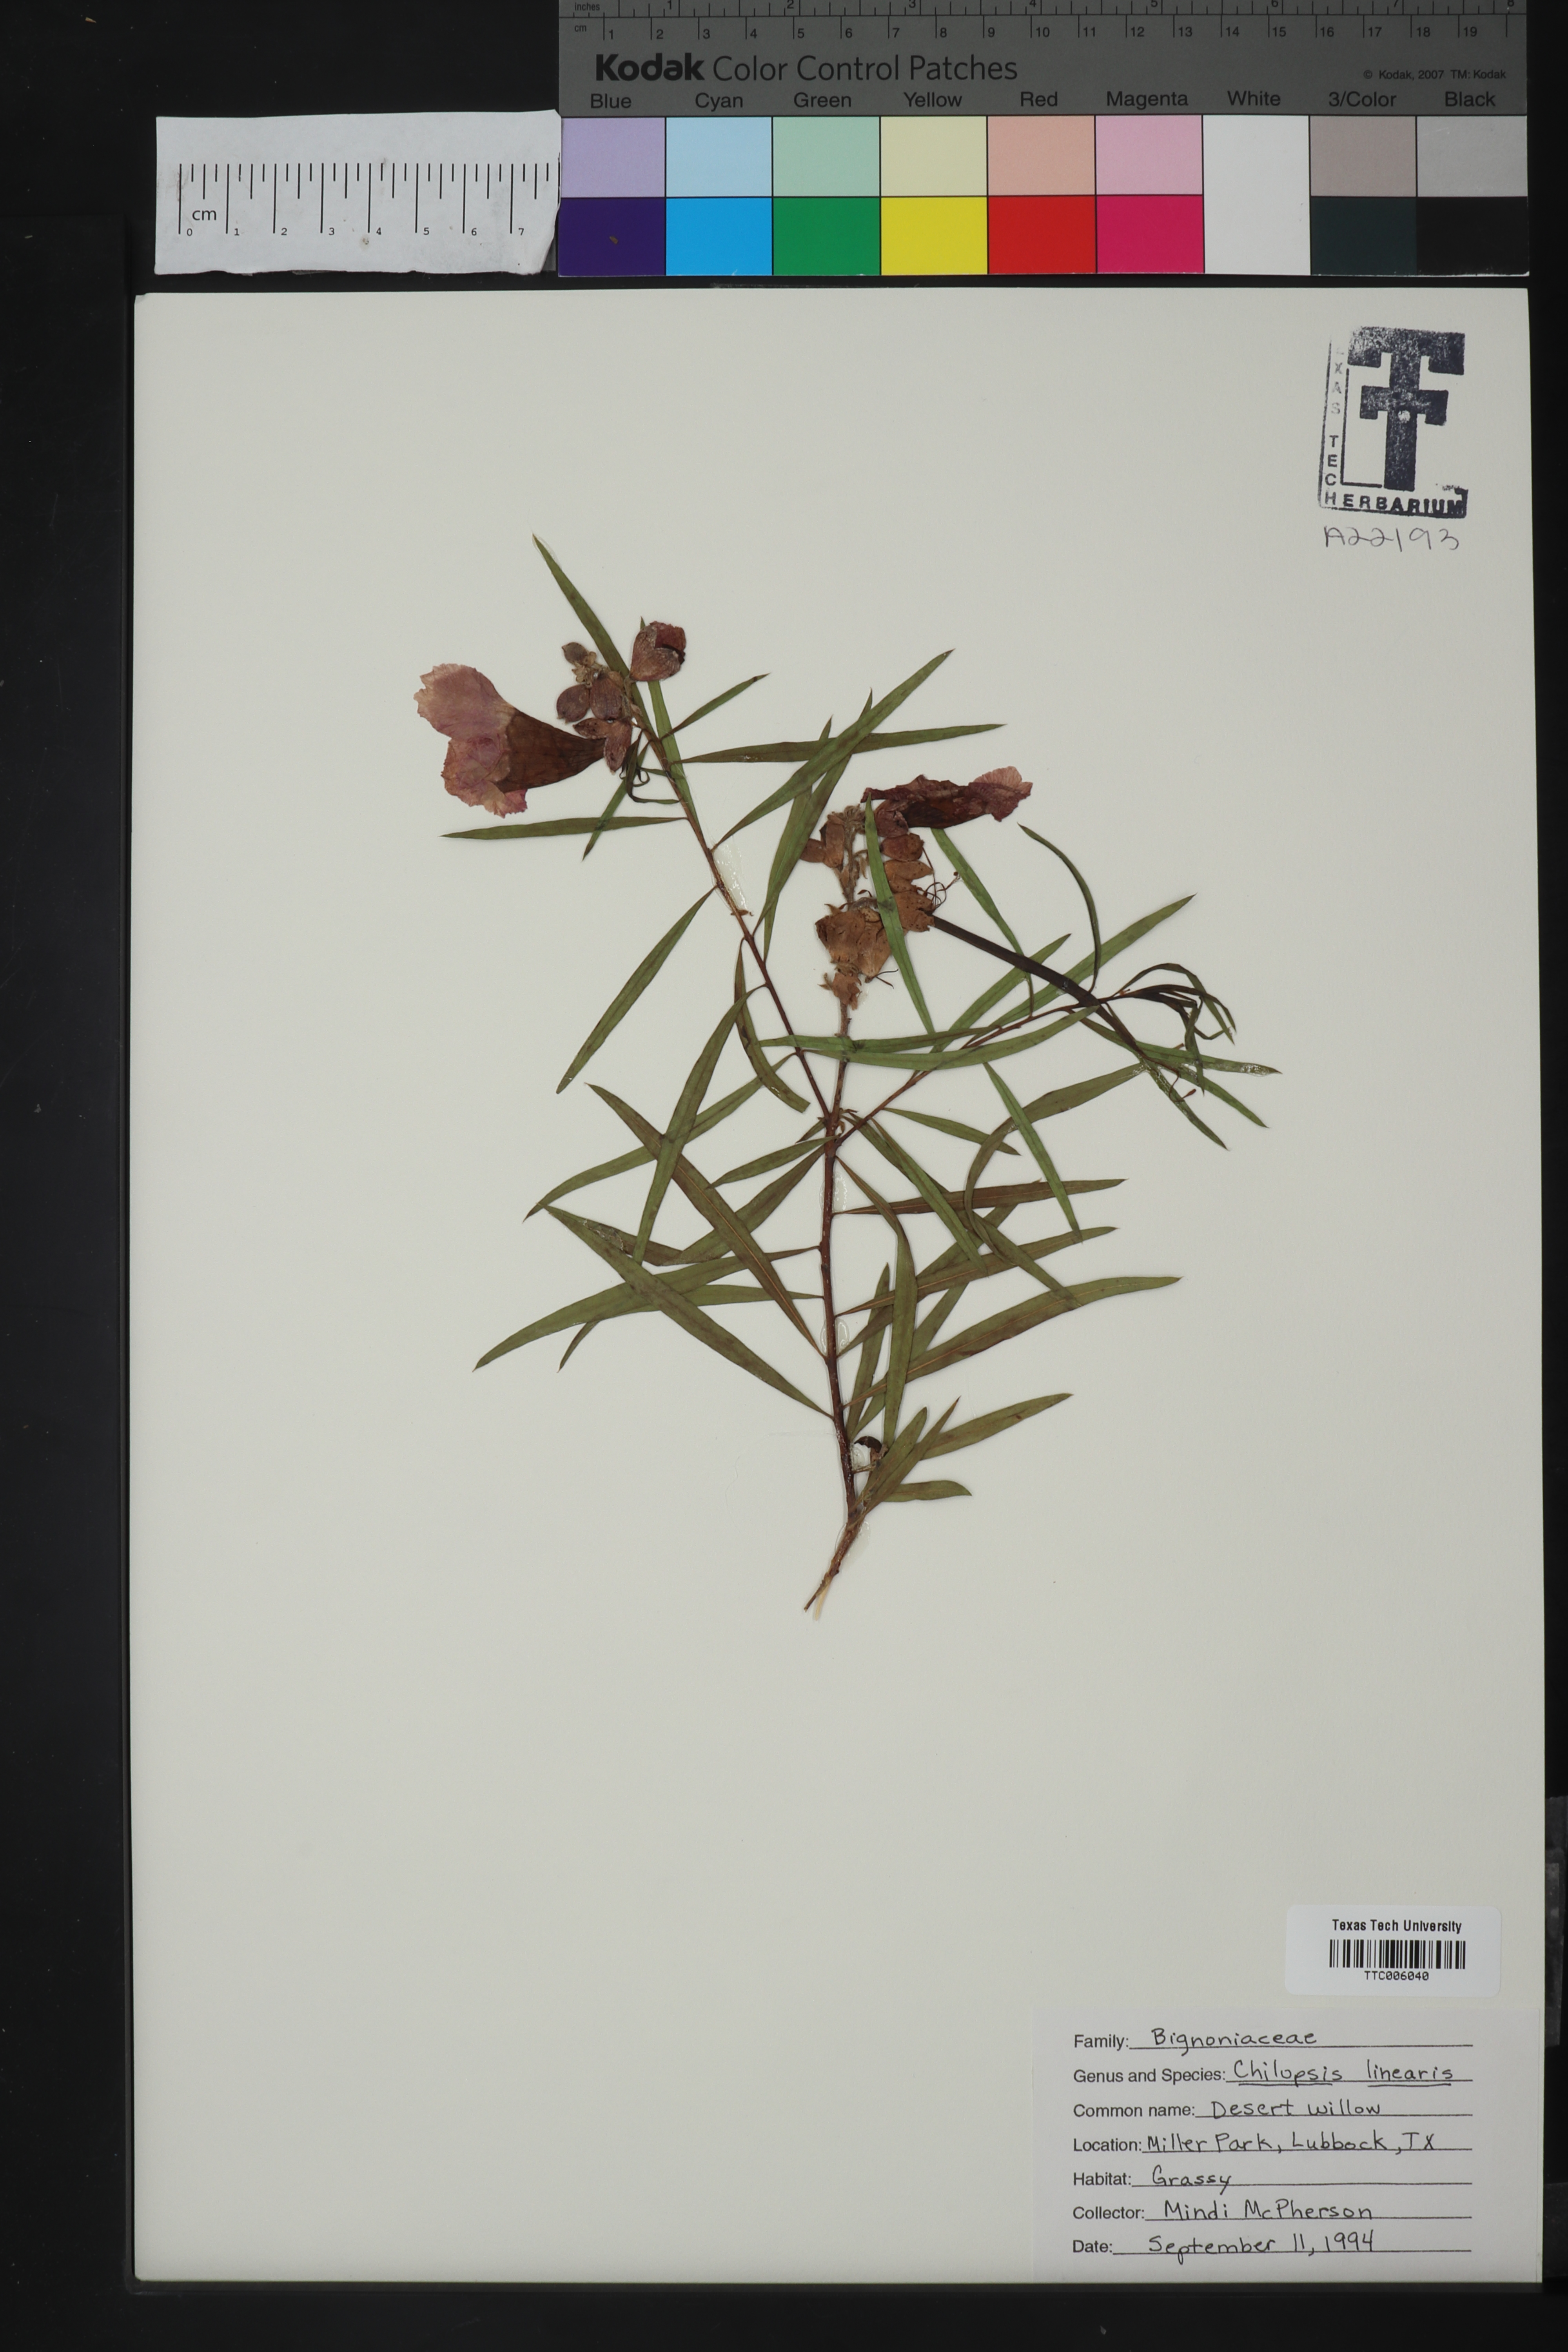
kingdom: Plantae
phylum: Tracheophyta
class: Magnoliopsida
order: Lamiales
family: Bignoniaceae
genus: Chilopsis
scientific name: Chilopsis linearis
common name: Desert-willow
